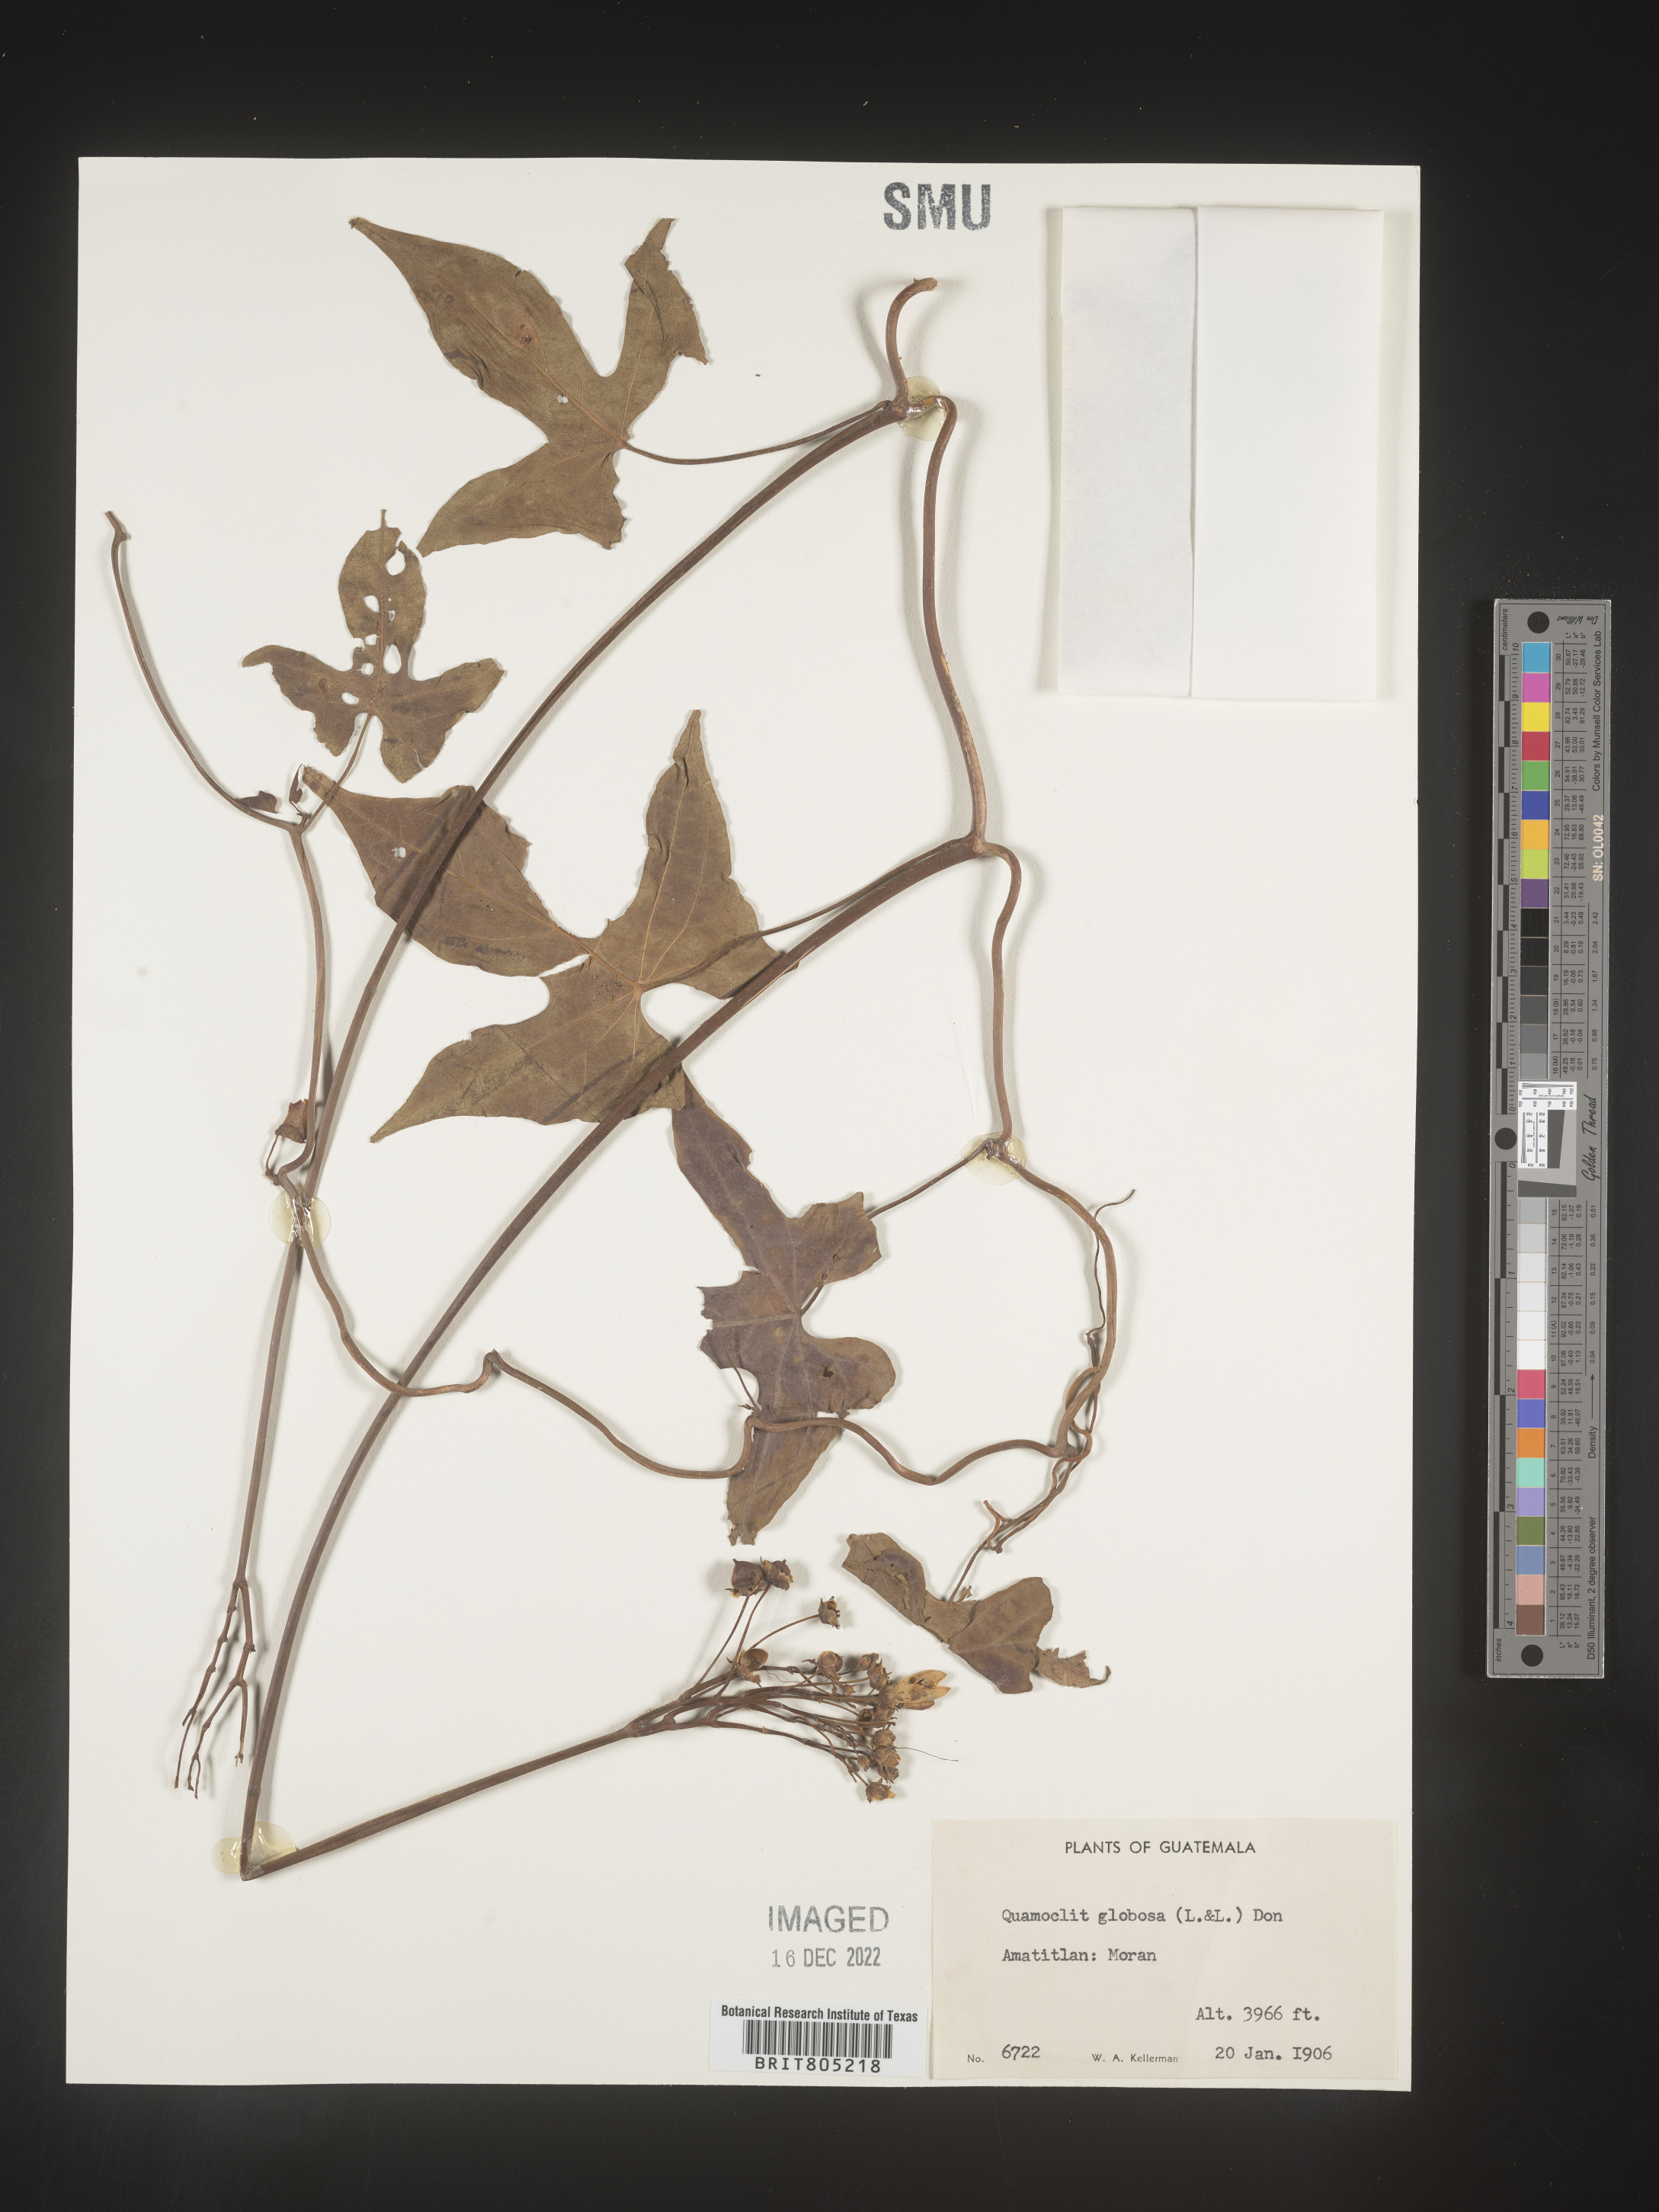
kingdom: Plantae
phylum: Tracheophyta
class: Magnoliopsida
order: Solanales
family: Convolvulaceae
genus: Ipomoea
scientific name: Ipomoea
